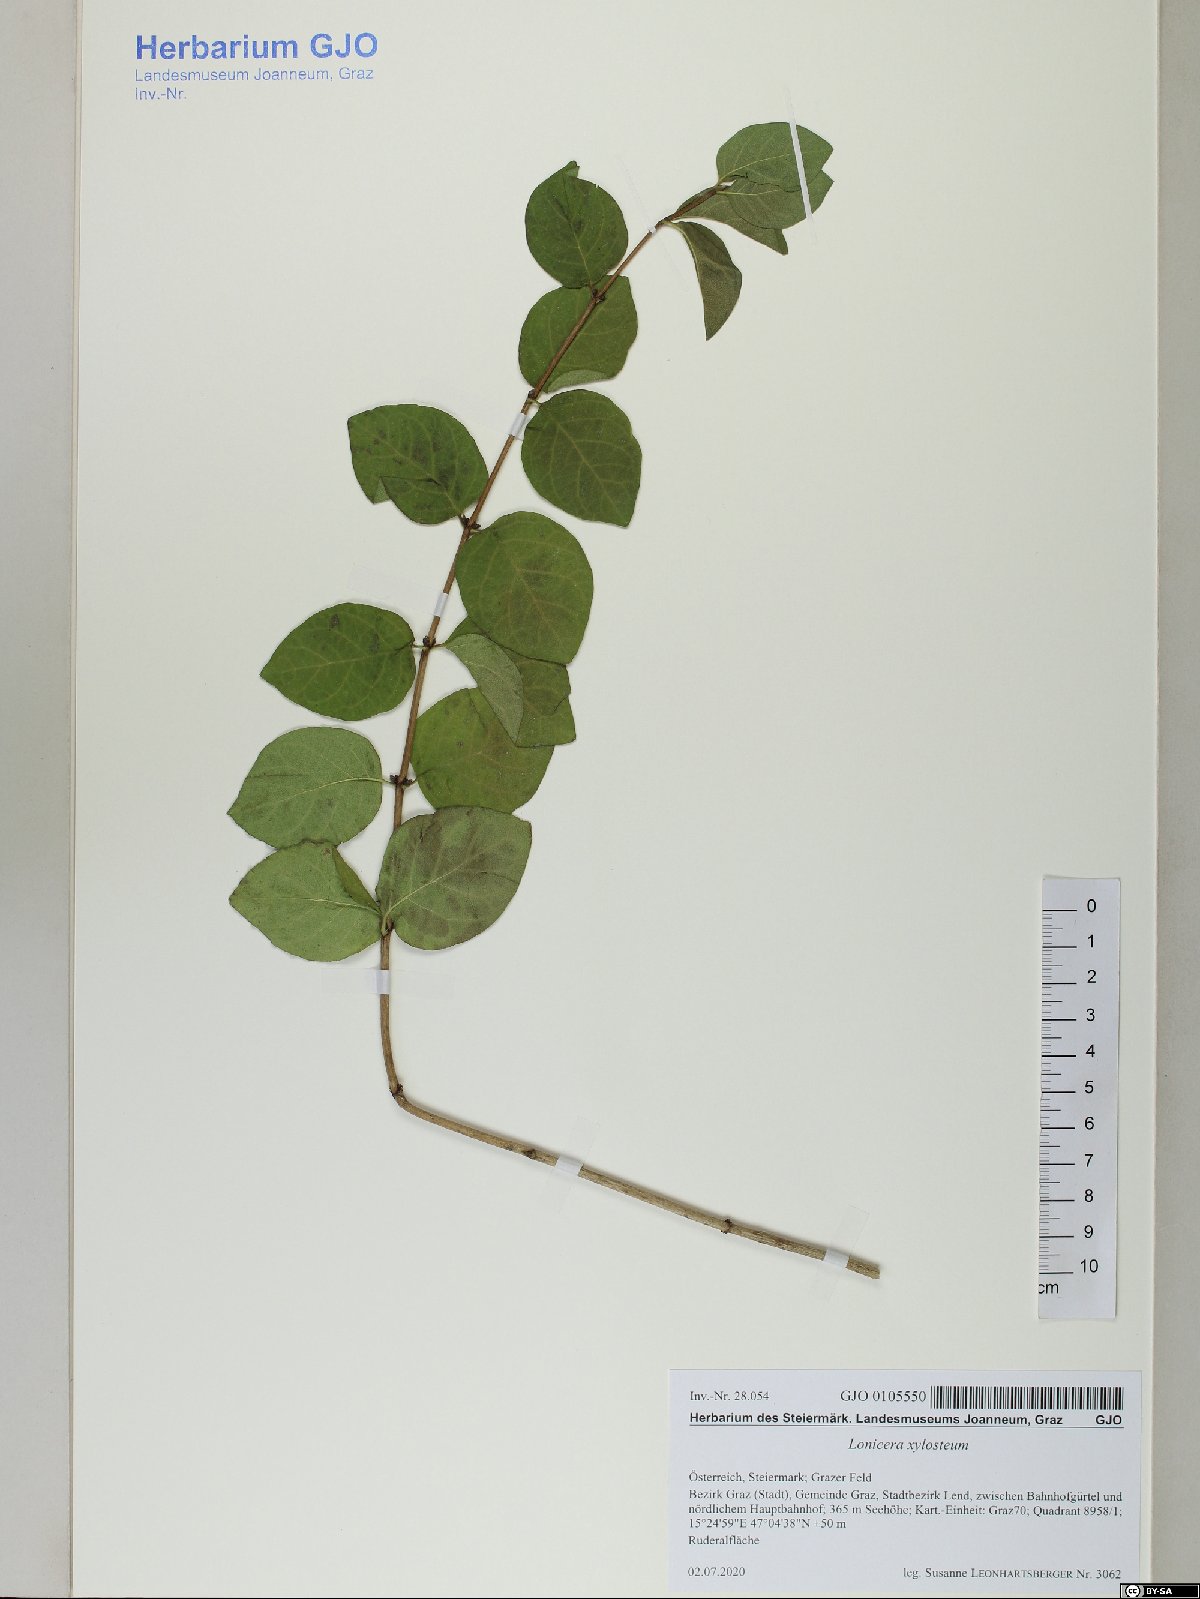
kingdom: Plantae
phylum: Tracheophyta
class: Magnoliopsida
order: Dipsacales
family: Caprifoliaceae
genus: Lonicera
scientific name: Lonicera xylosteum
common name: Fly honeysuckle
